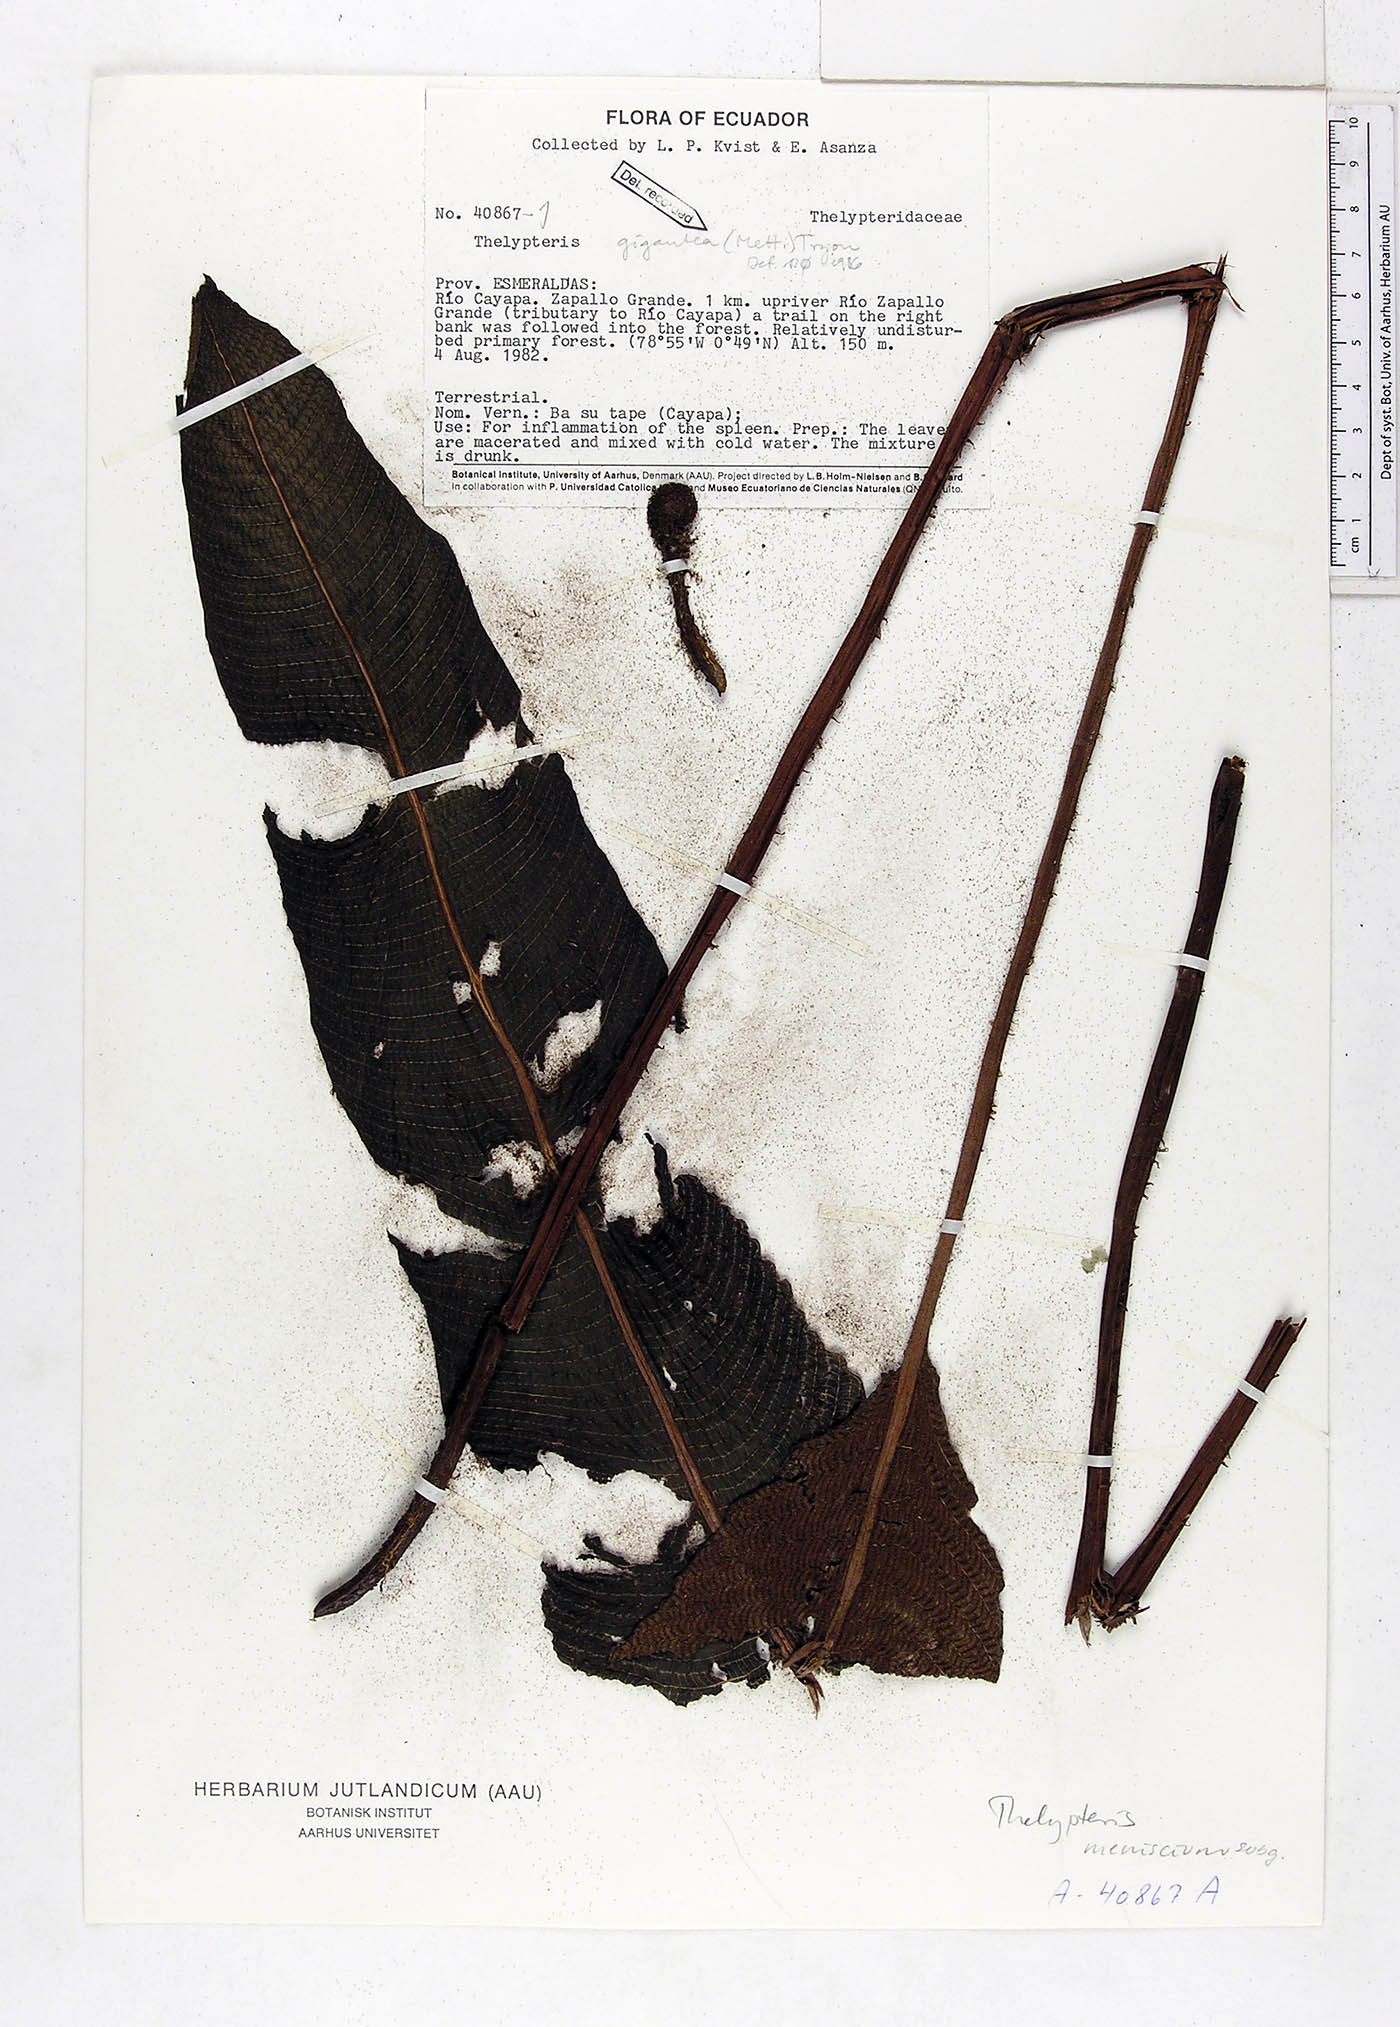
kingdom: Plantae
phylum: Tracheophyta
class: Polypodiopsida
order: Polypodiales
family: Thelypteridaceae
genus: Meniscium
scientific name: Meniscium giganteum
